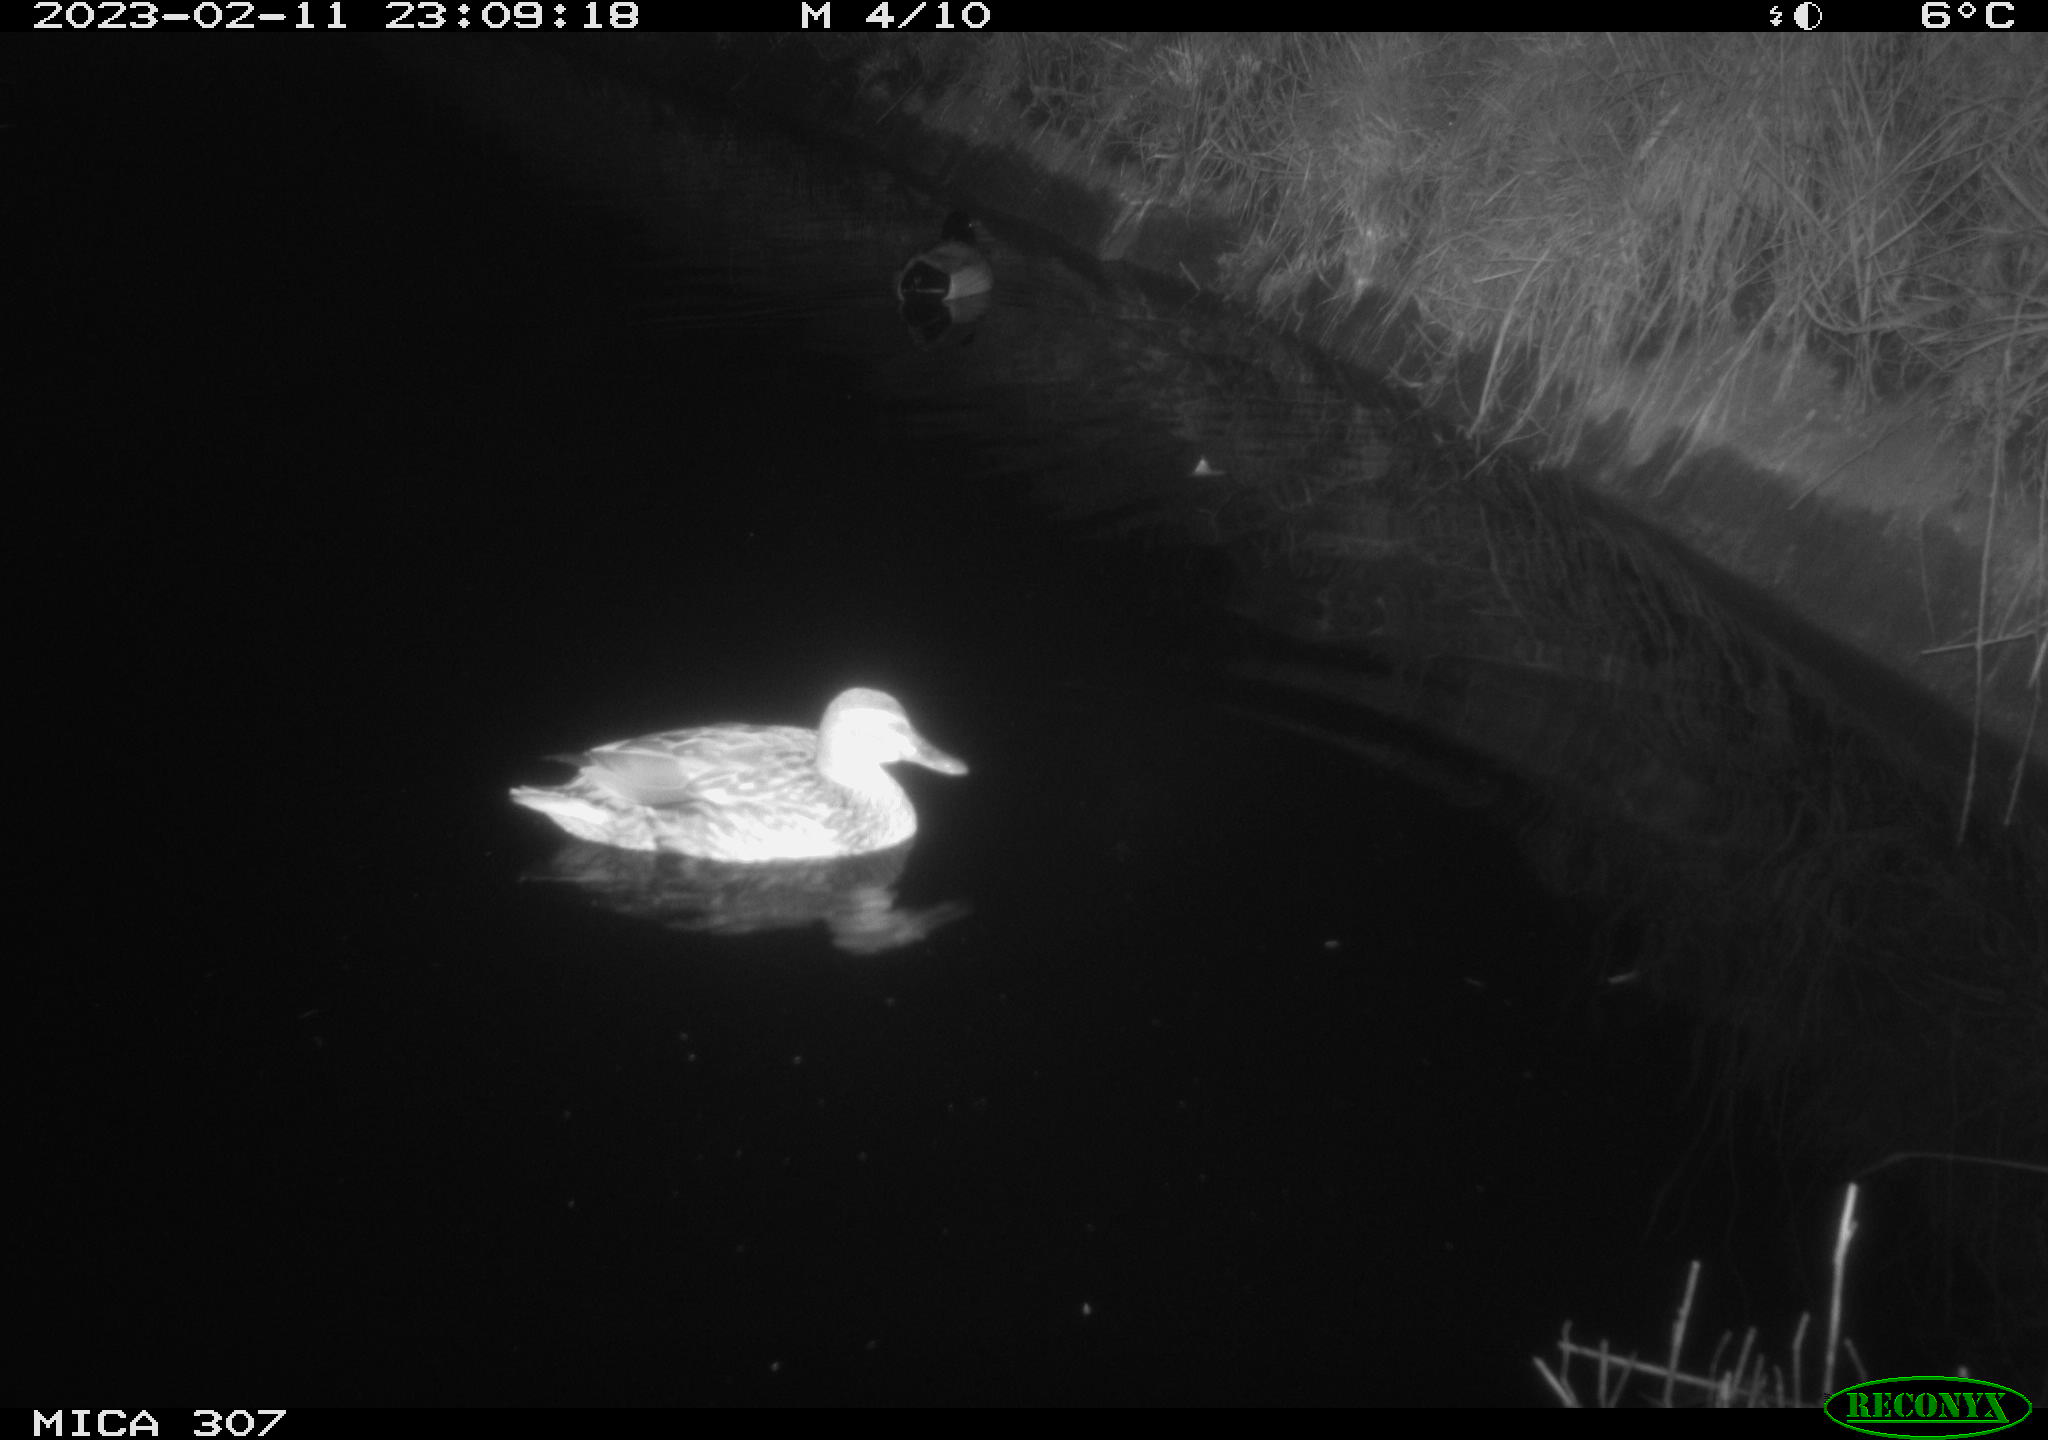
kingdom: Animalia
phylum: Chordata
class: Aves
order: Anseriformes
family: Anatidae
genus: Anas
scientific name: Anas
